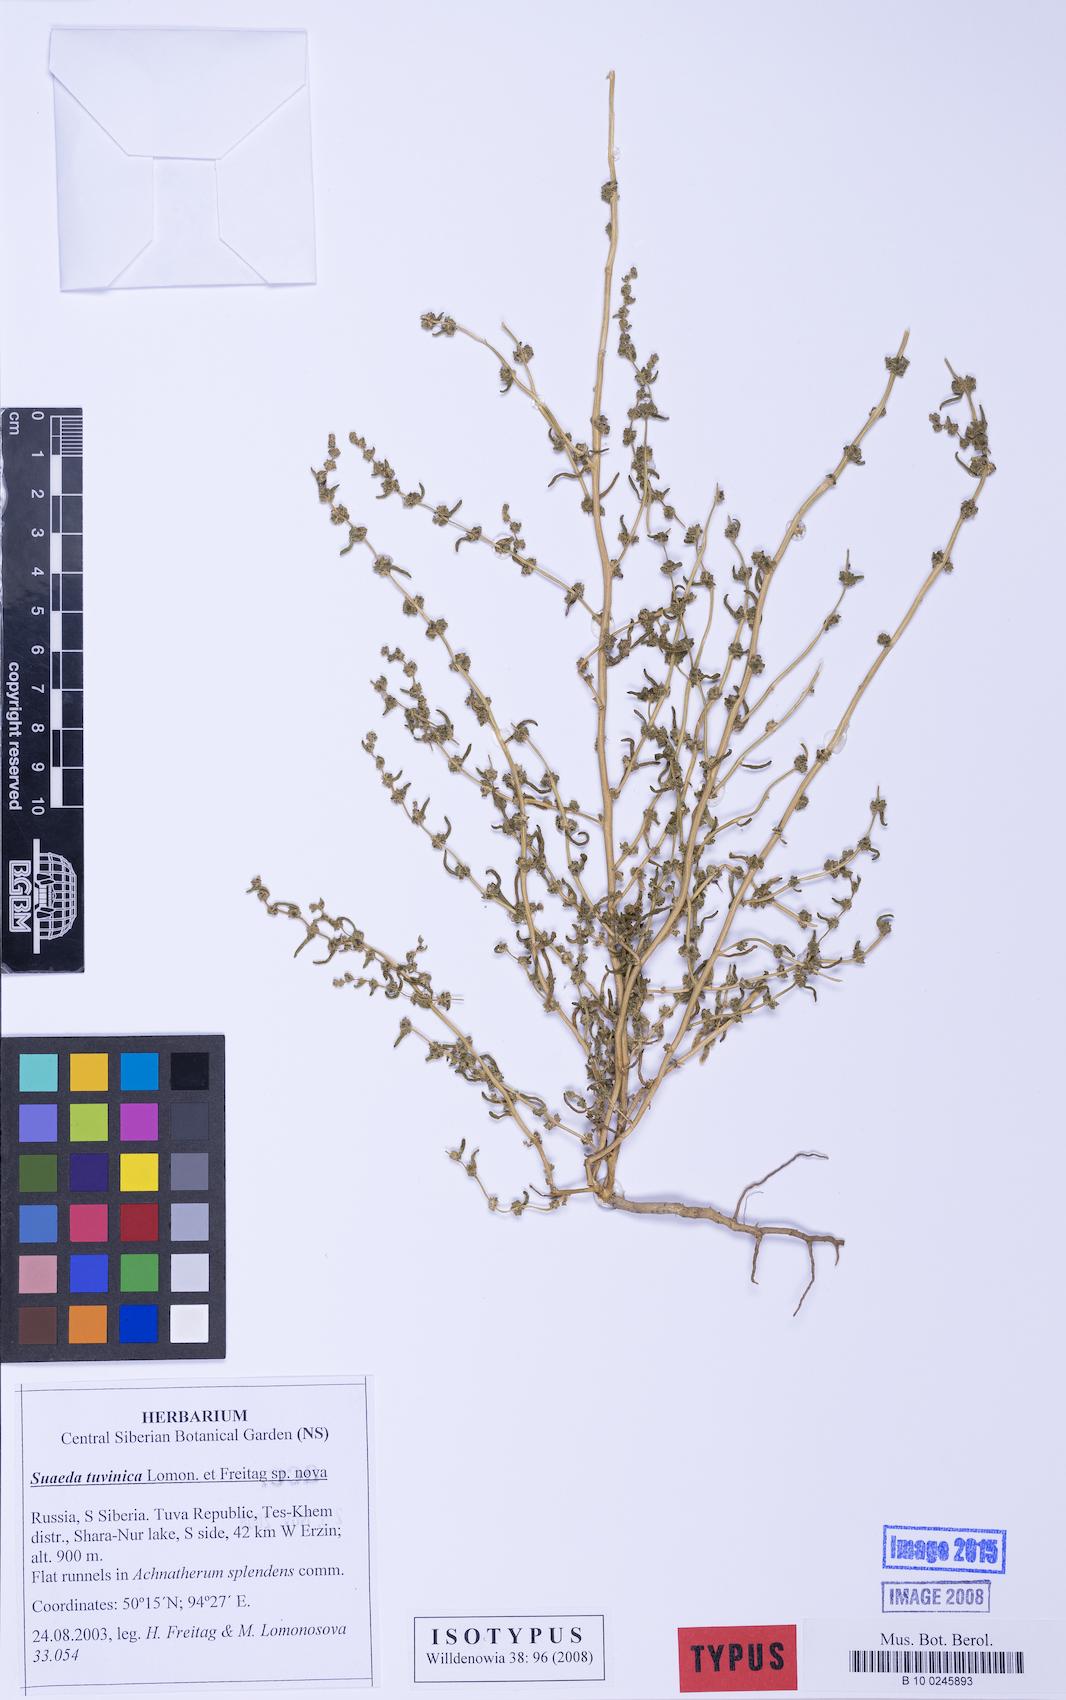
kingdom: Plantae
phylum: Tracheophyta
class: Magnoliopsida
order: Caryophyllales
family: Amaranthaceae
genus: Suaeda
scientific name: Suaeda tuvinica
